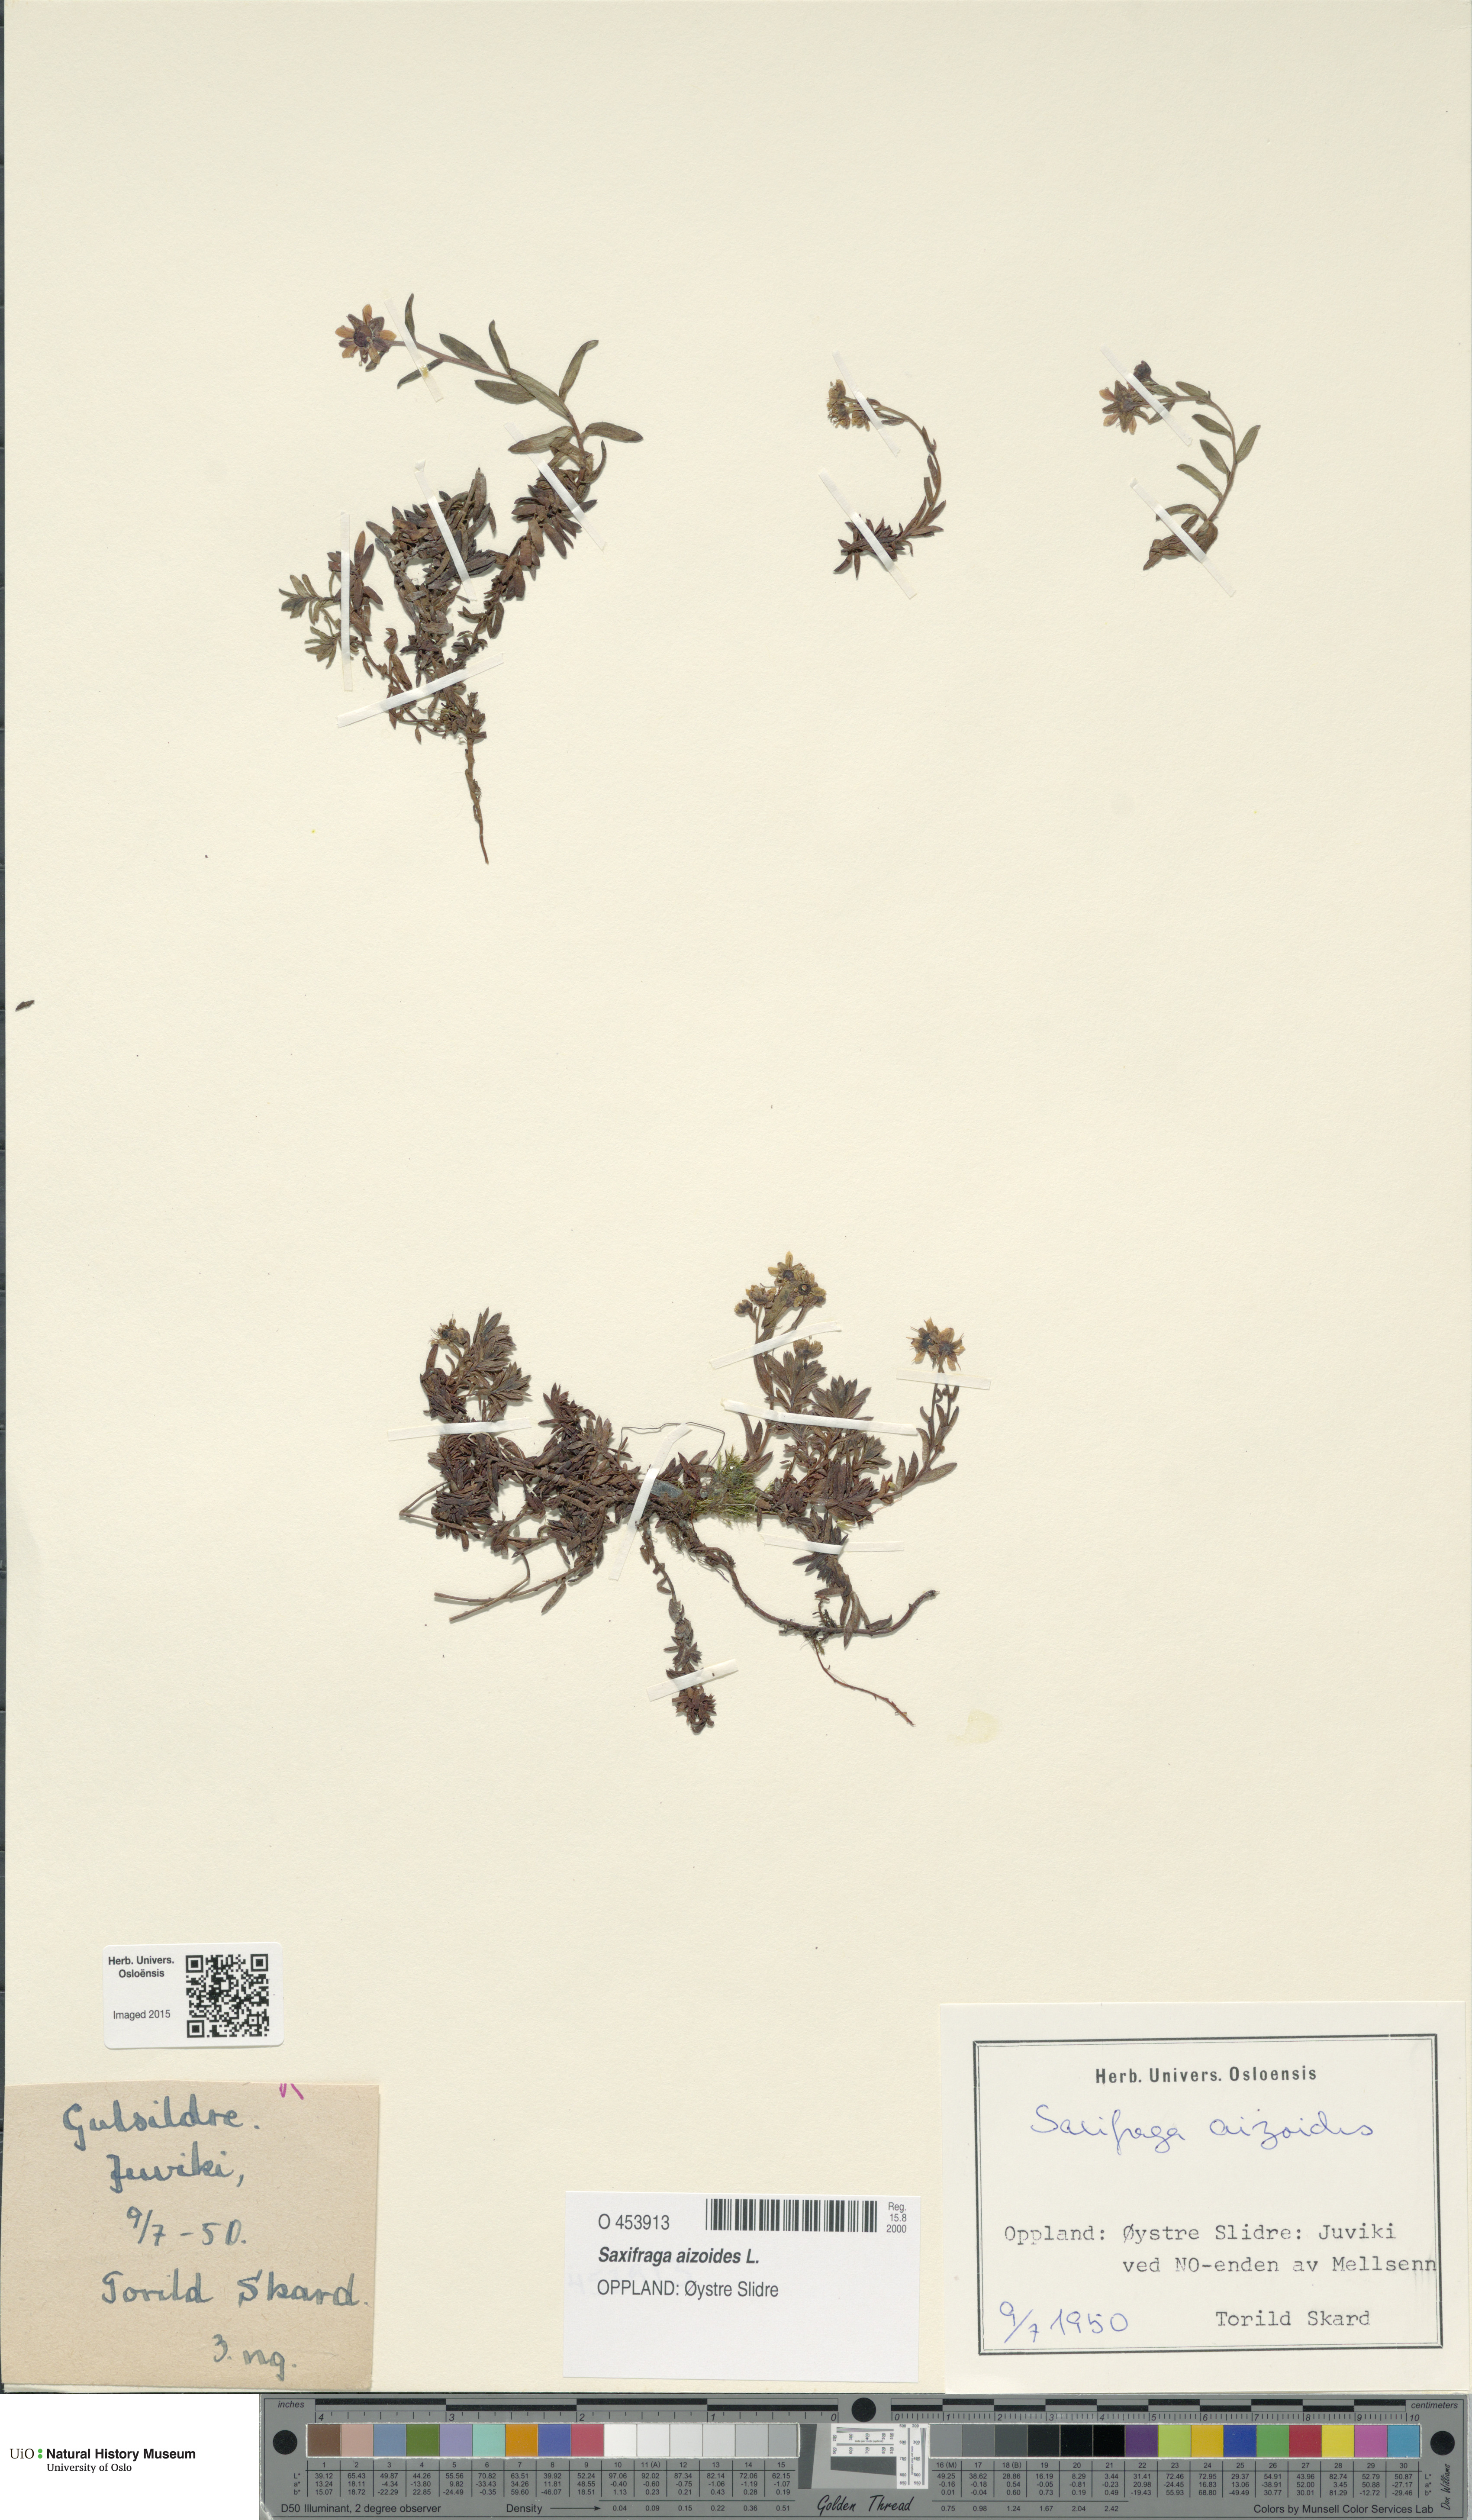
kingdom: Plantae
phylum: Tracheophyta
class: Magnoliopsida
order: Saxifragales
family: Saxifragaceae
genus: Saxifraga
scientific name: Saxifraga aizoides
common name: Yellow mountain saxifrage
